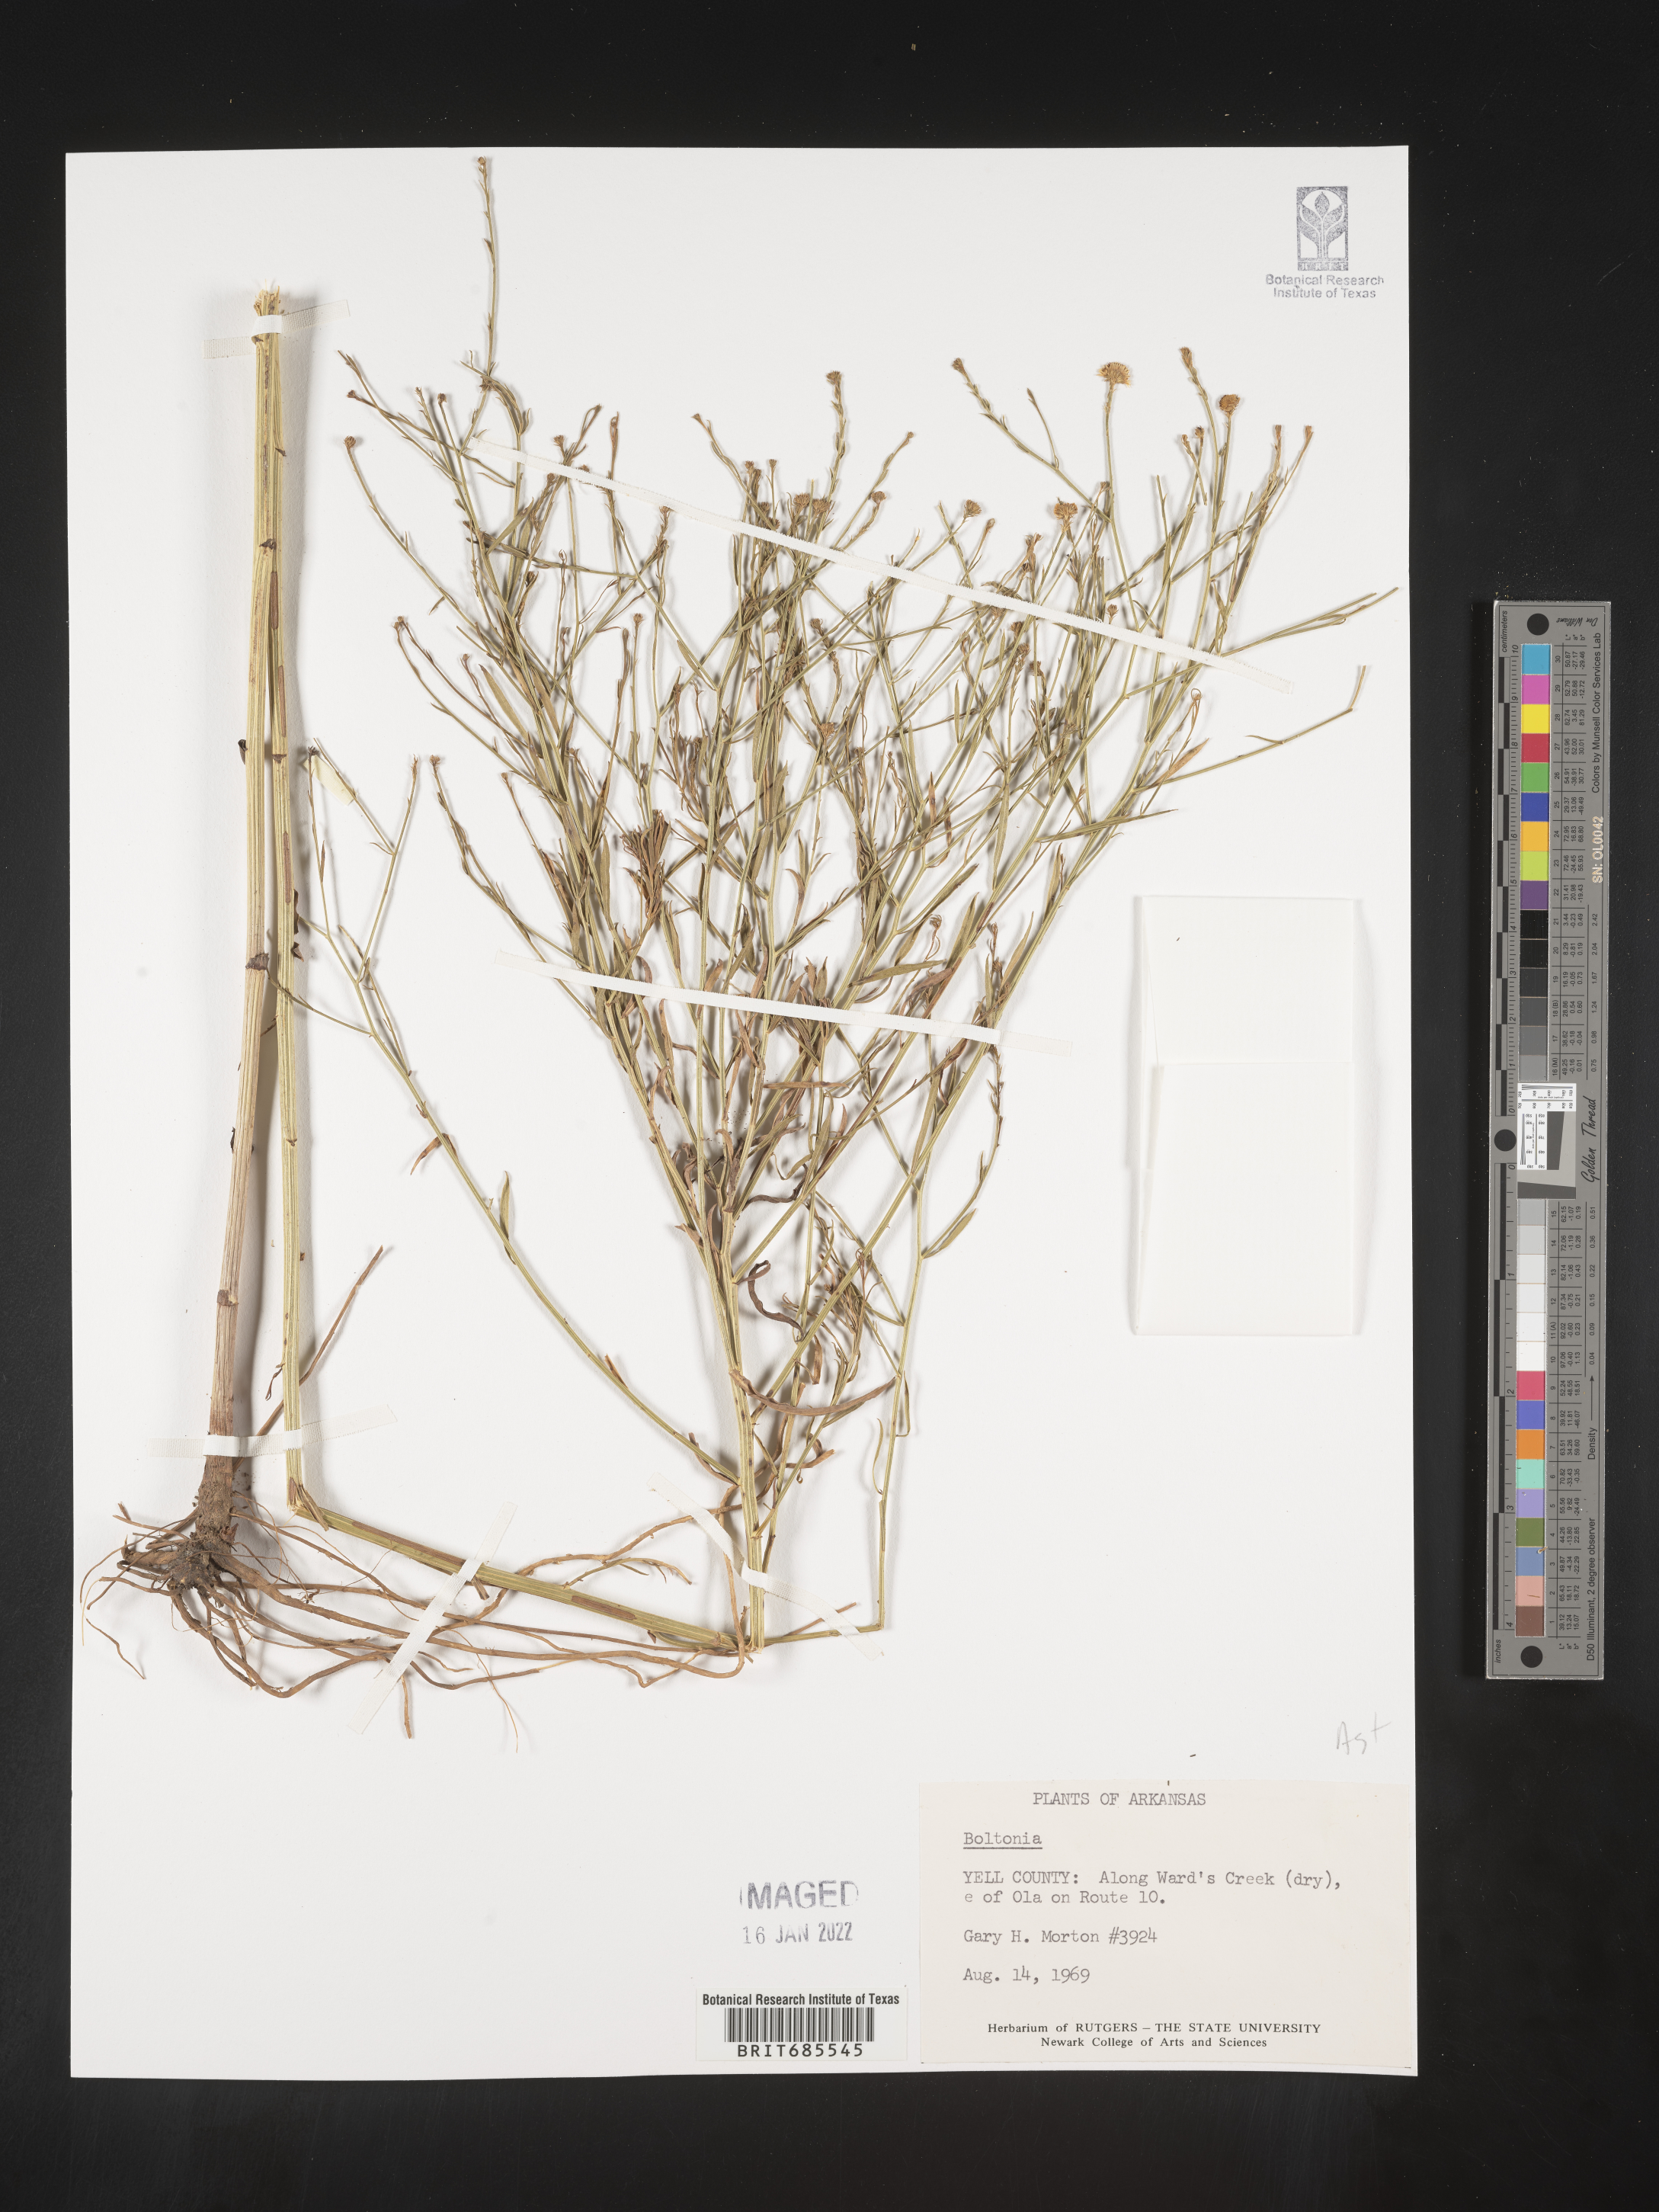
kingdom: Plantae
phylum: Tracheophyta
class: Magnoliopsida
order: Asterales
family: Asteraceae
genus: Boltonia
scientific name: Boltonia
